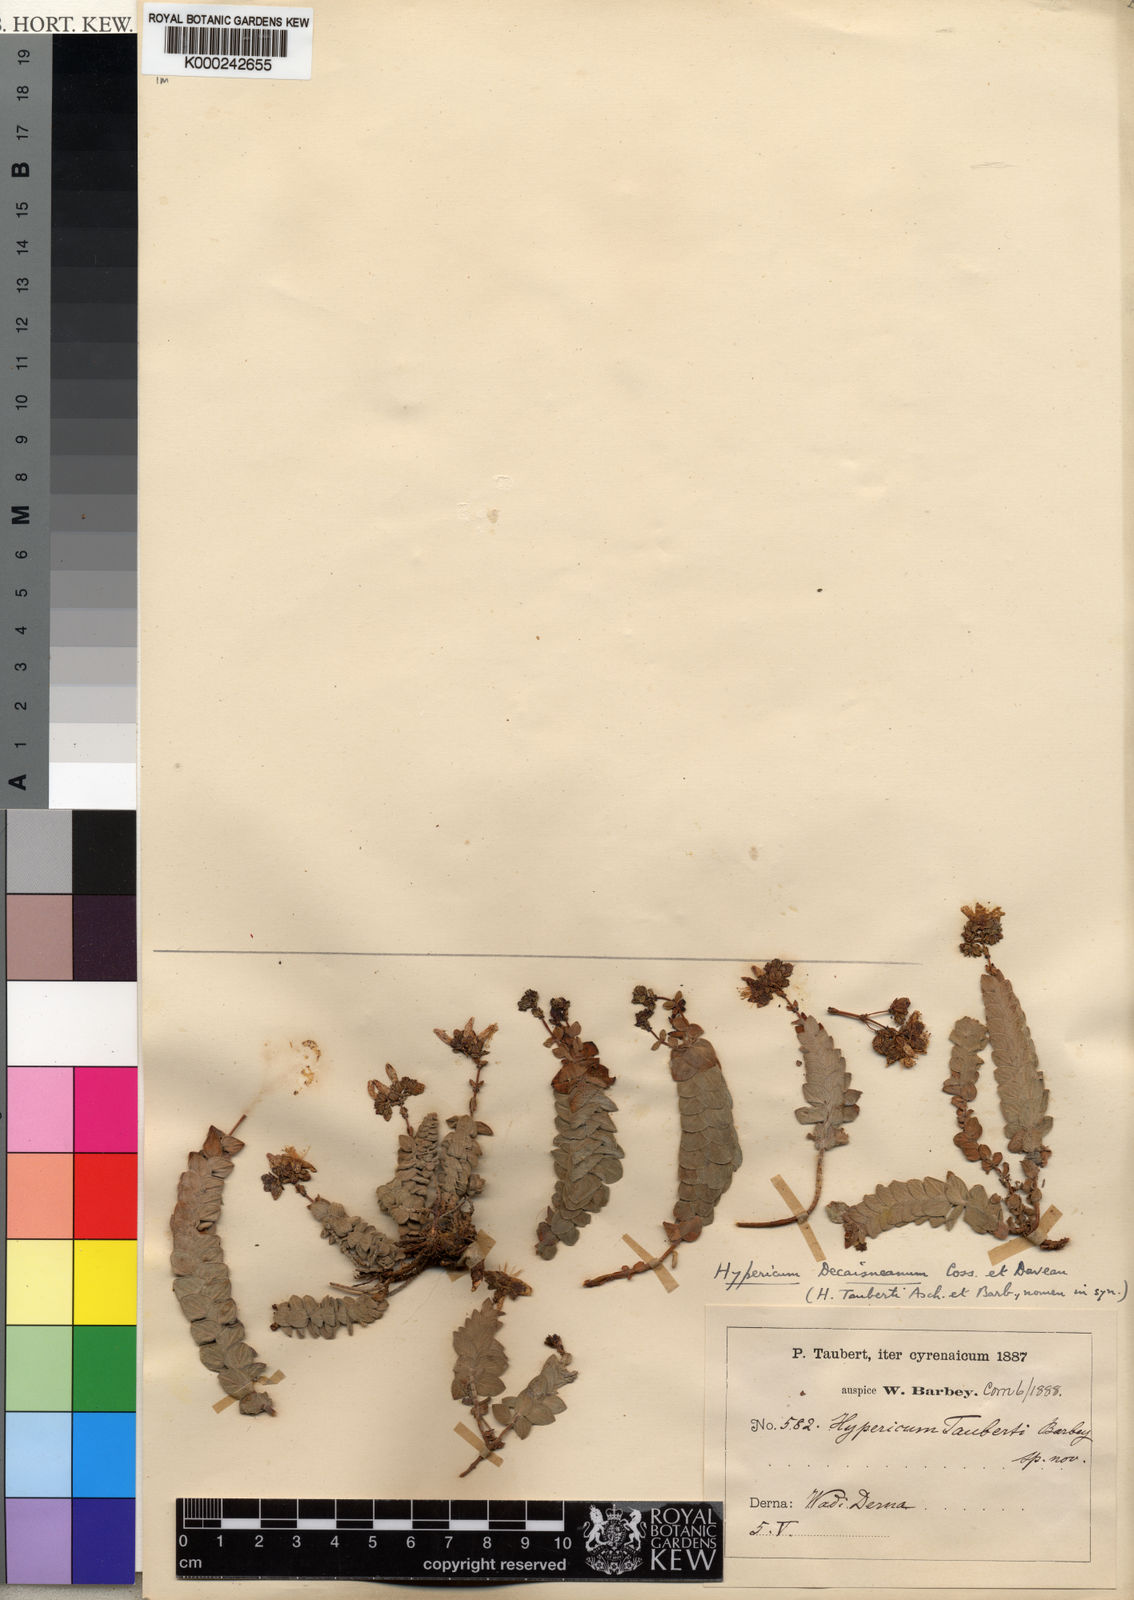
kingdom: Plantae
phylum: Tracheophyta
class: Magnoliopsida
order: Malpighiales
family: Hypericaceae
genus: Hypericum
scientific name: Hypericum
